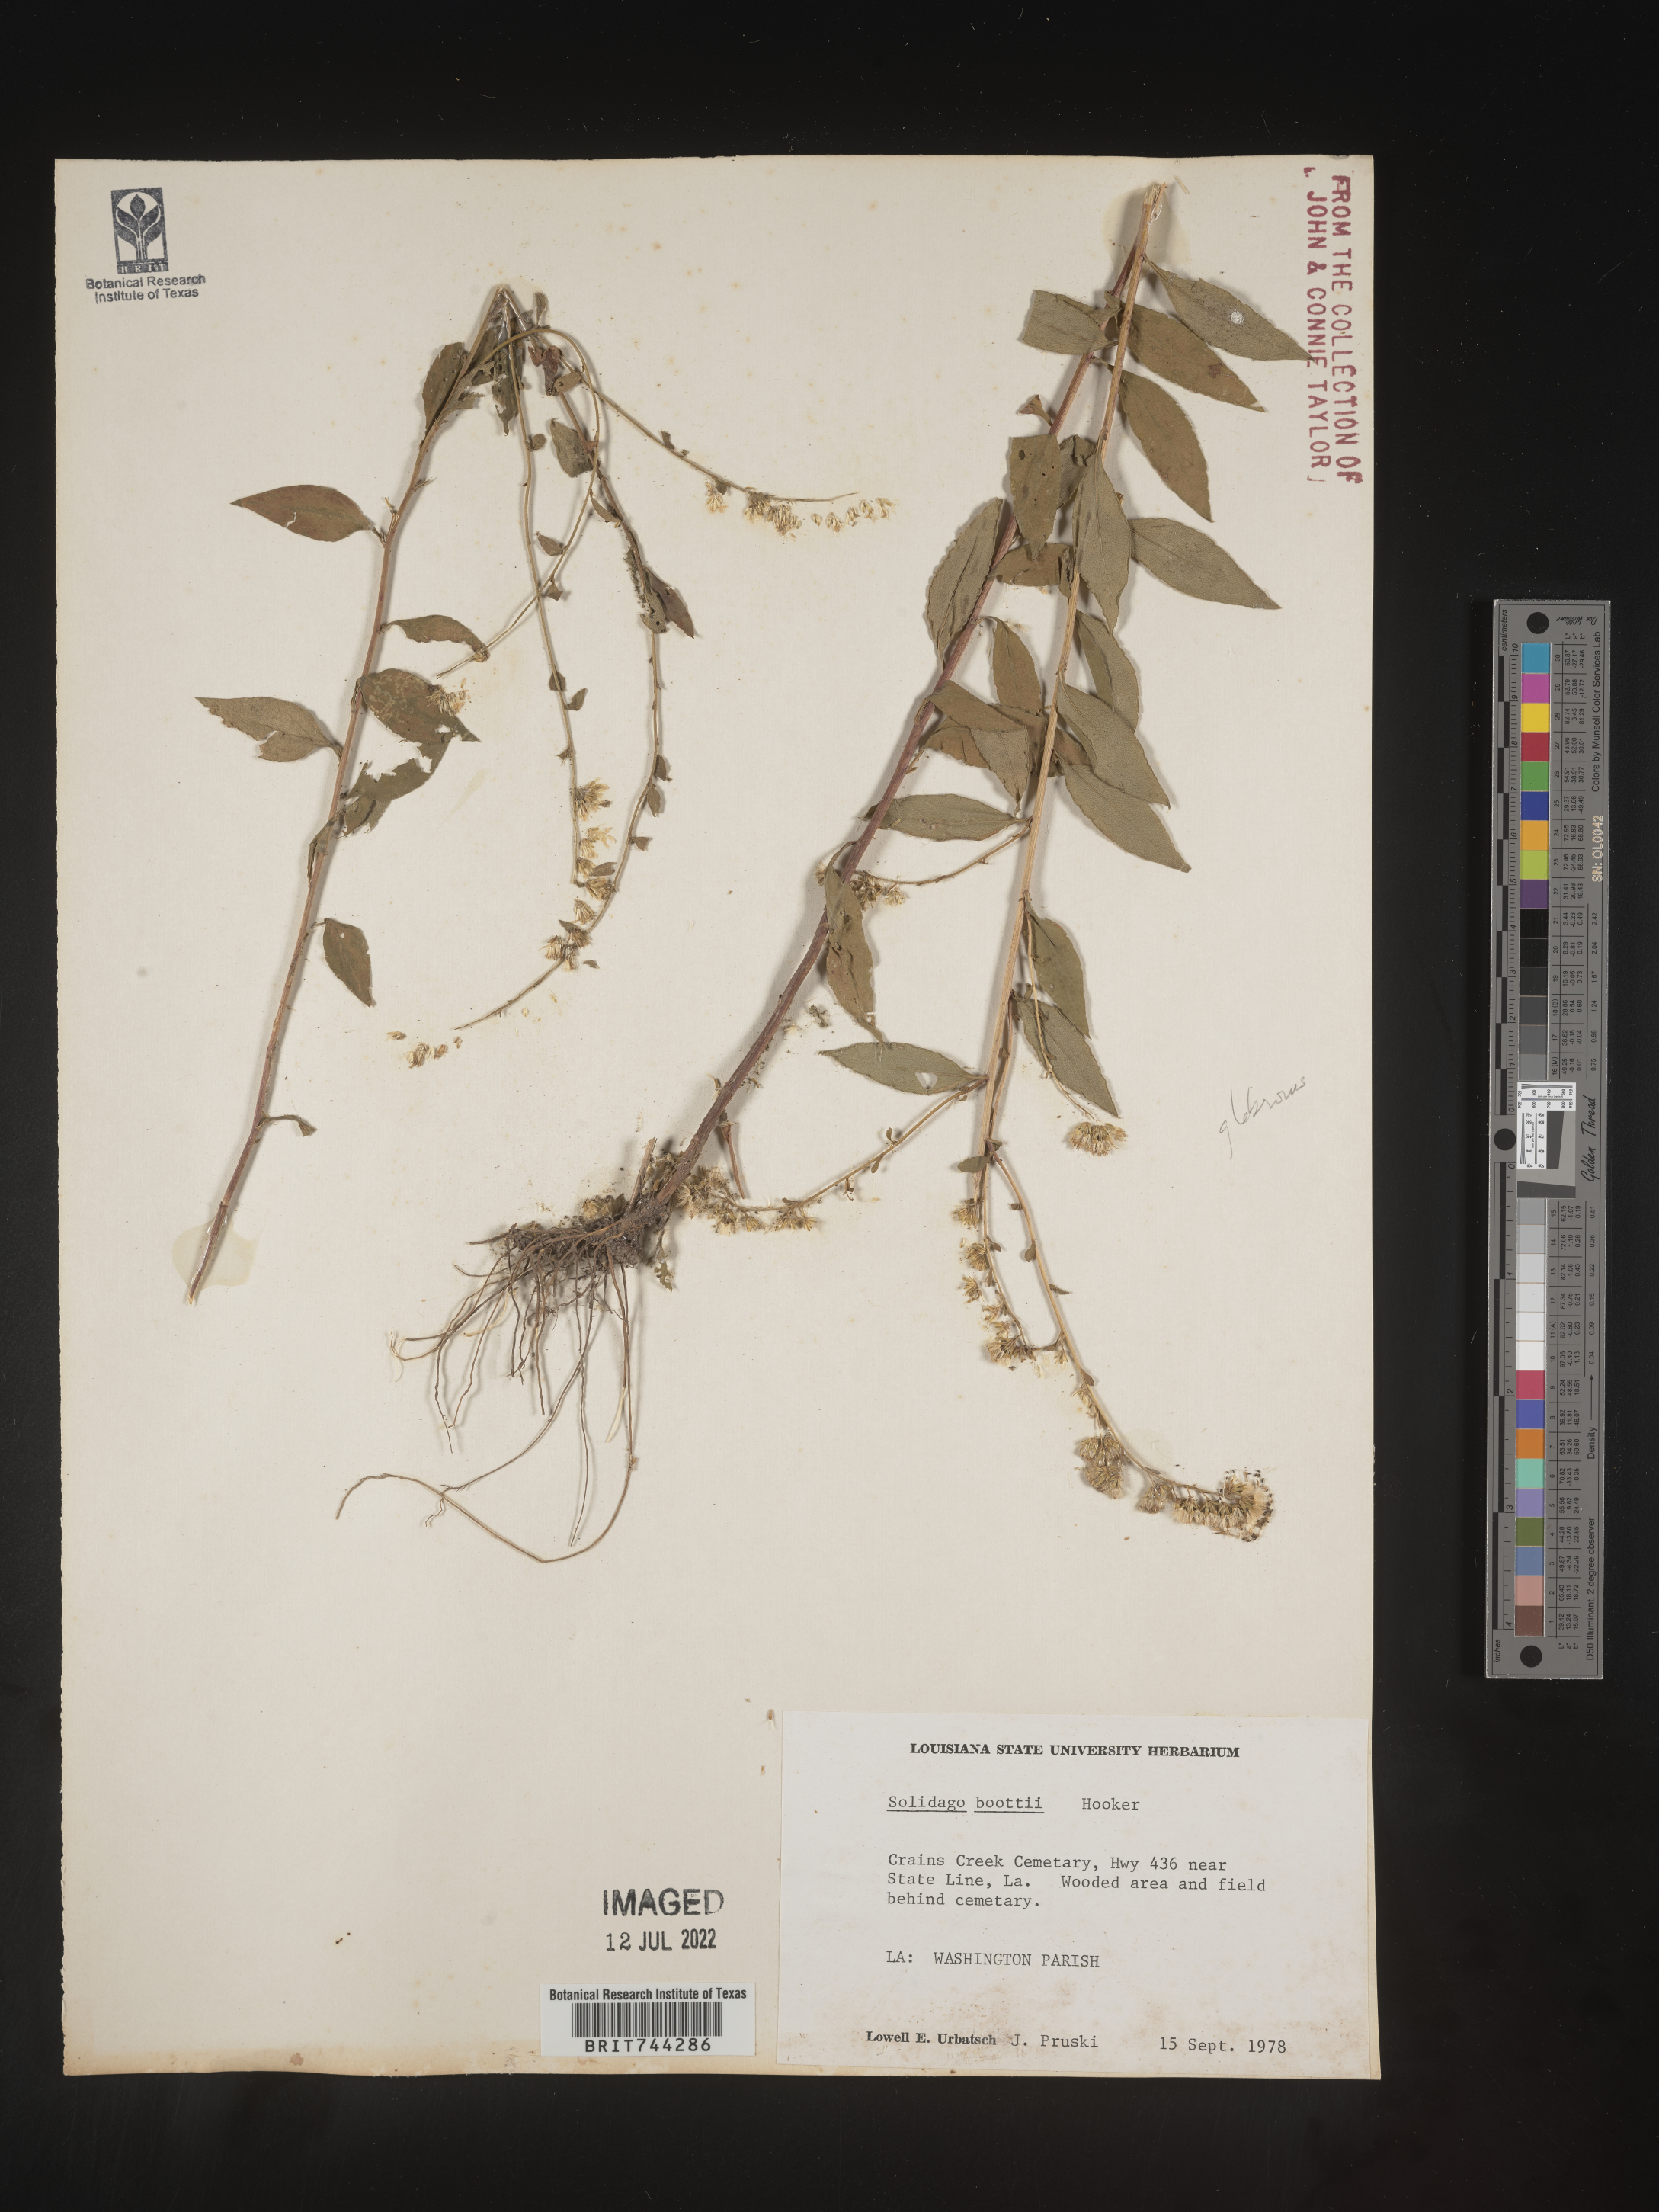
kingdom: Plantae
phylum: Tracheophyta
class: Magnoliopsida
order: Asterales
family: Asteraceae
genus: Solidago
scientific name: Solidago boottii
